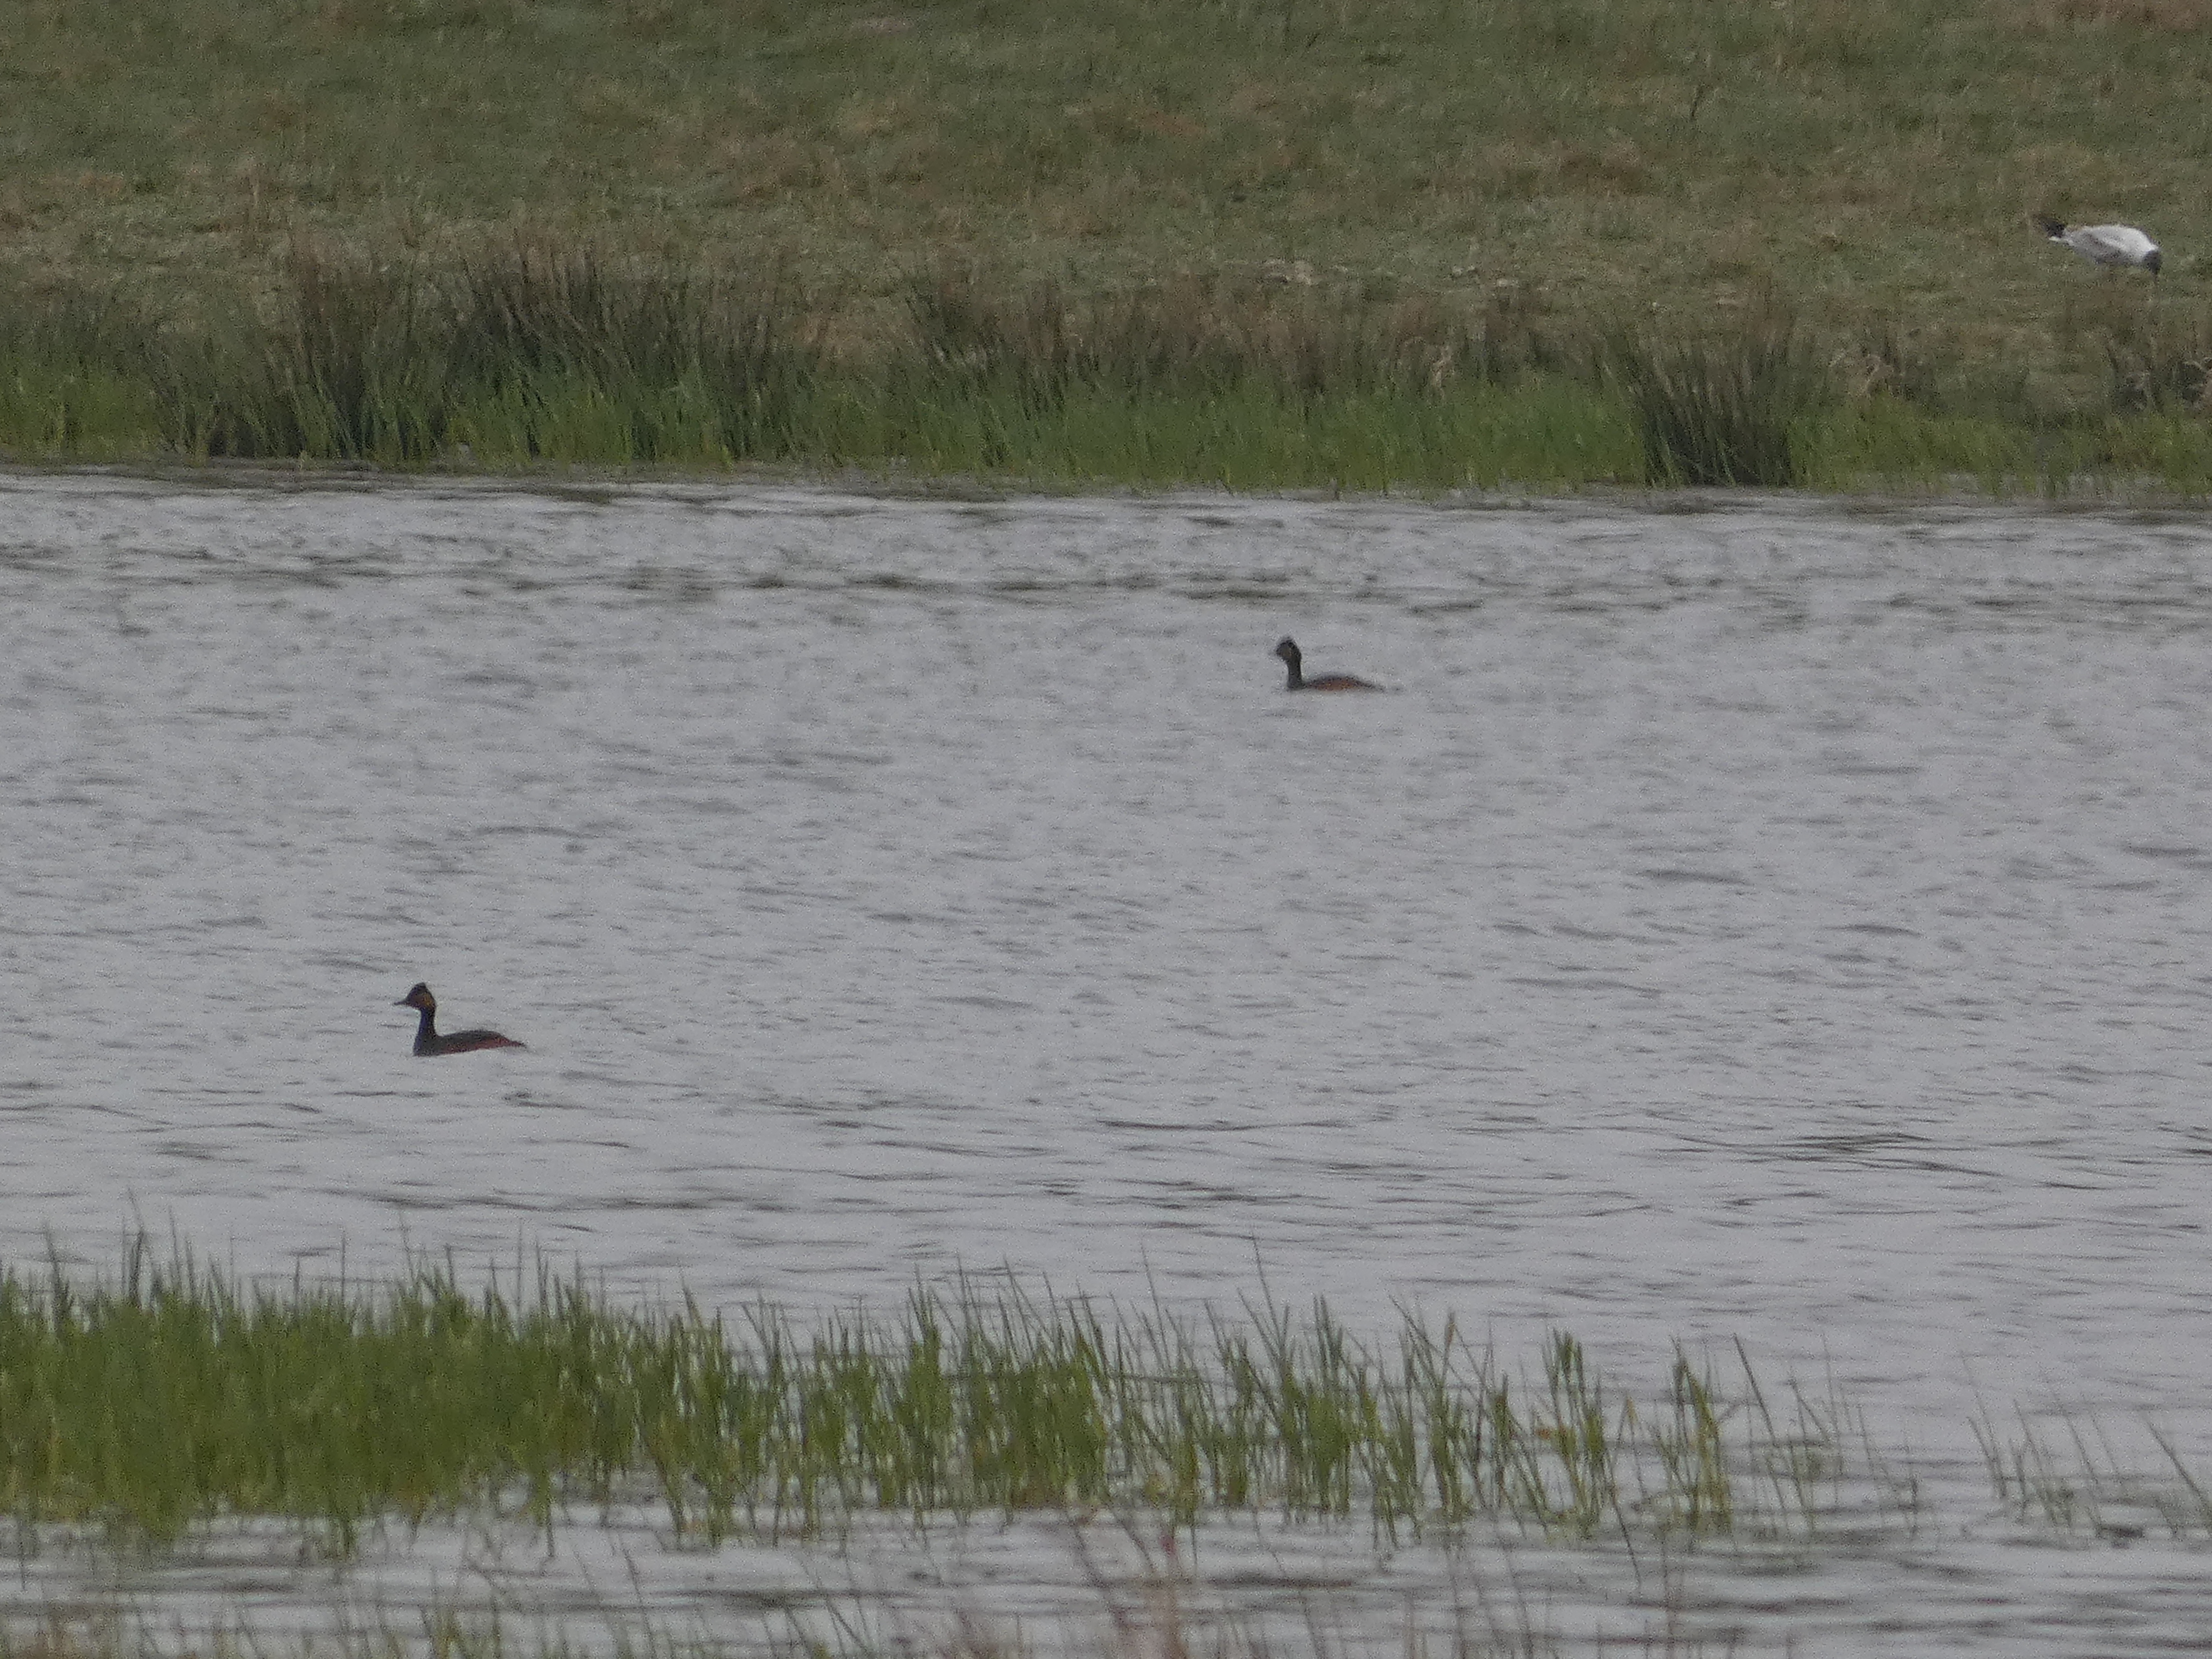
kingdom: Animalia
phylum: Chordata
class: Aves
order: Podicipediformes
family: Podicipedidae
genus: Podiceps
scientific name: Podiceps nigricollis
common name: Sorthalset lappedykker
